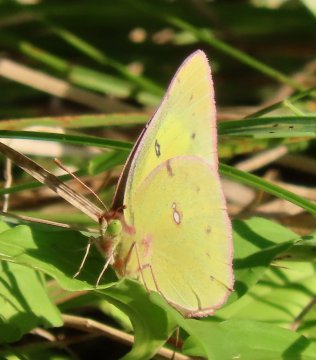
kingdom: Animalia
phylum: Arthropoda
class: Insecta
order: Lepidoptera
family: Pieridae
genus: Colias
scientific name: Colias philodice
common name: Clouded Sulphur
